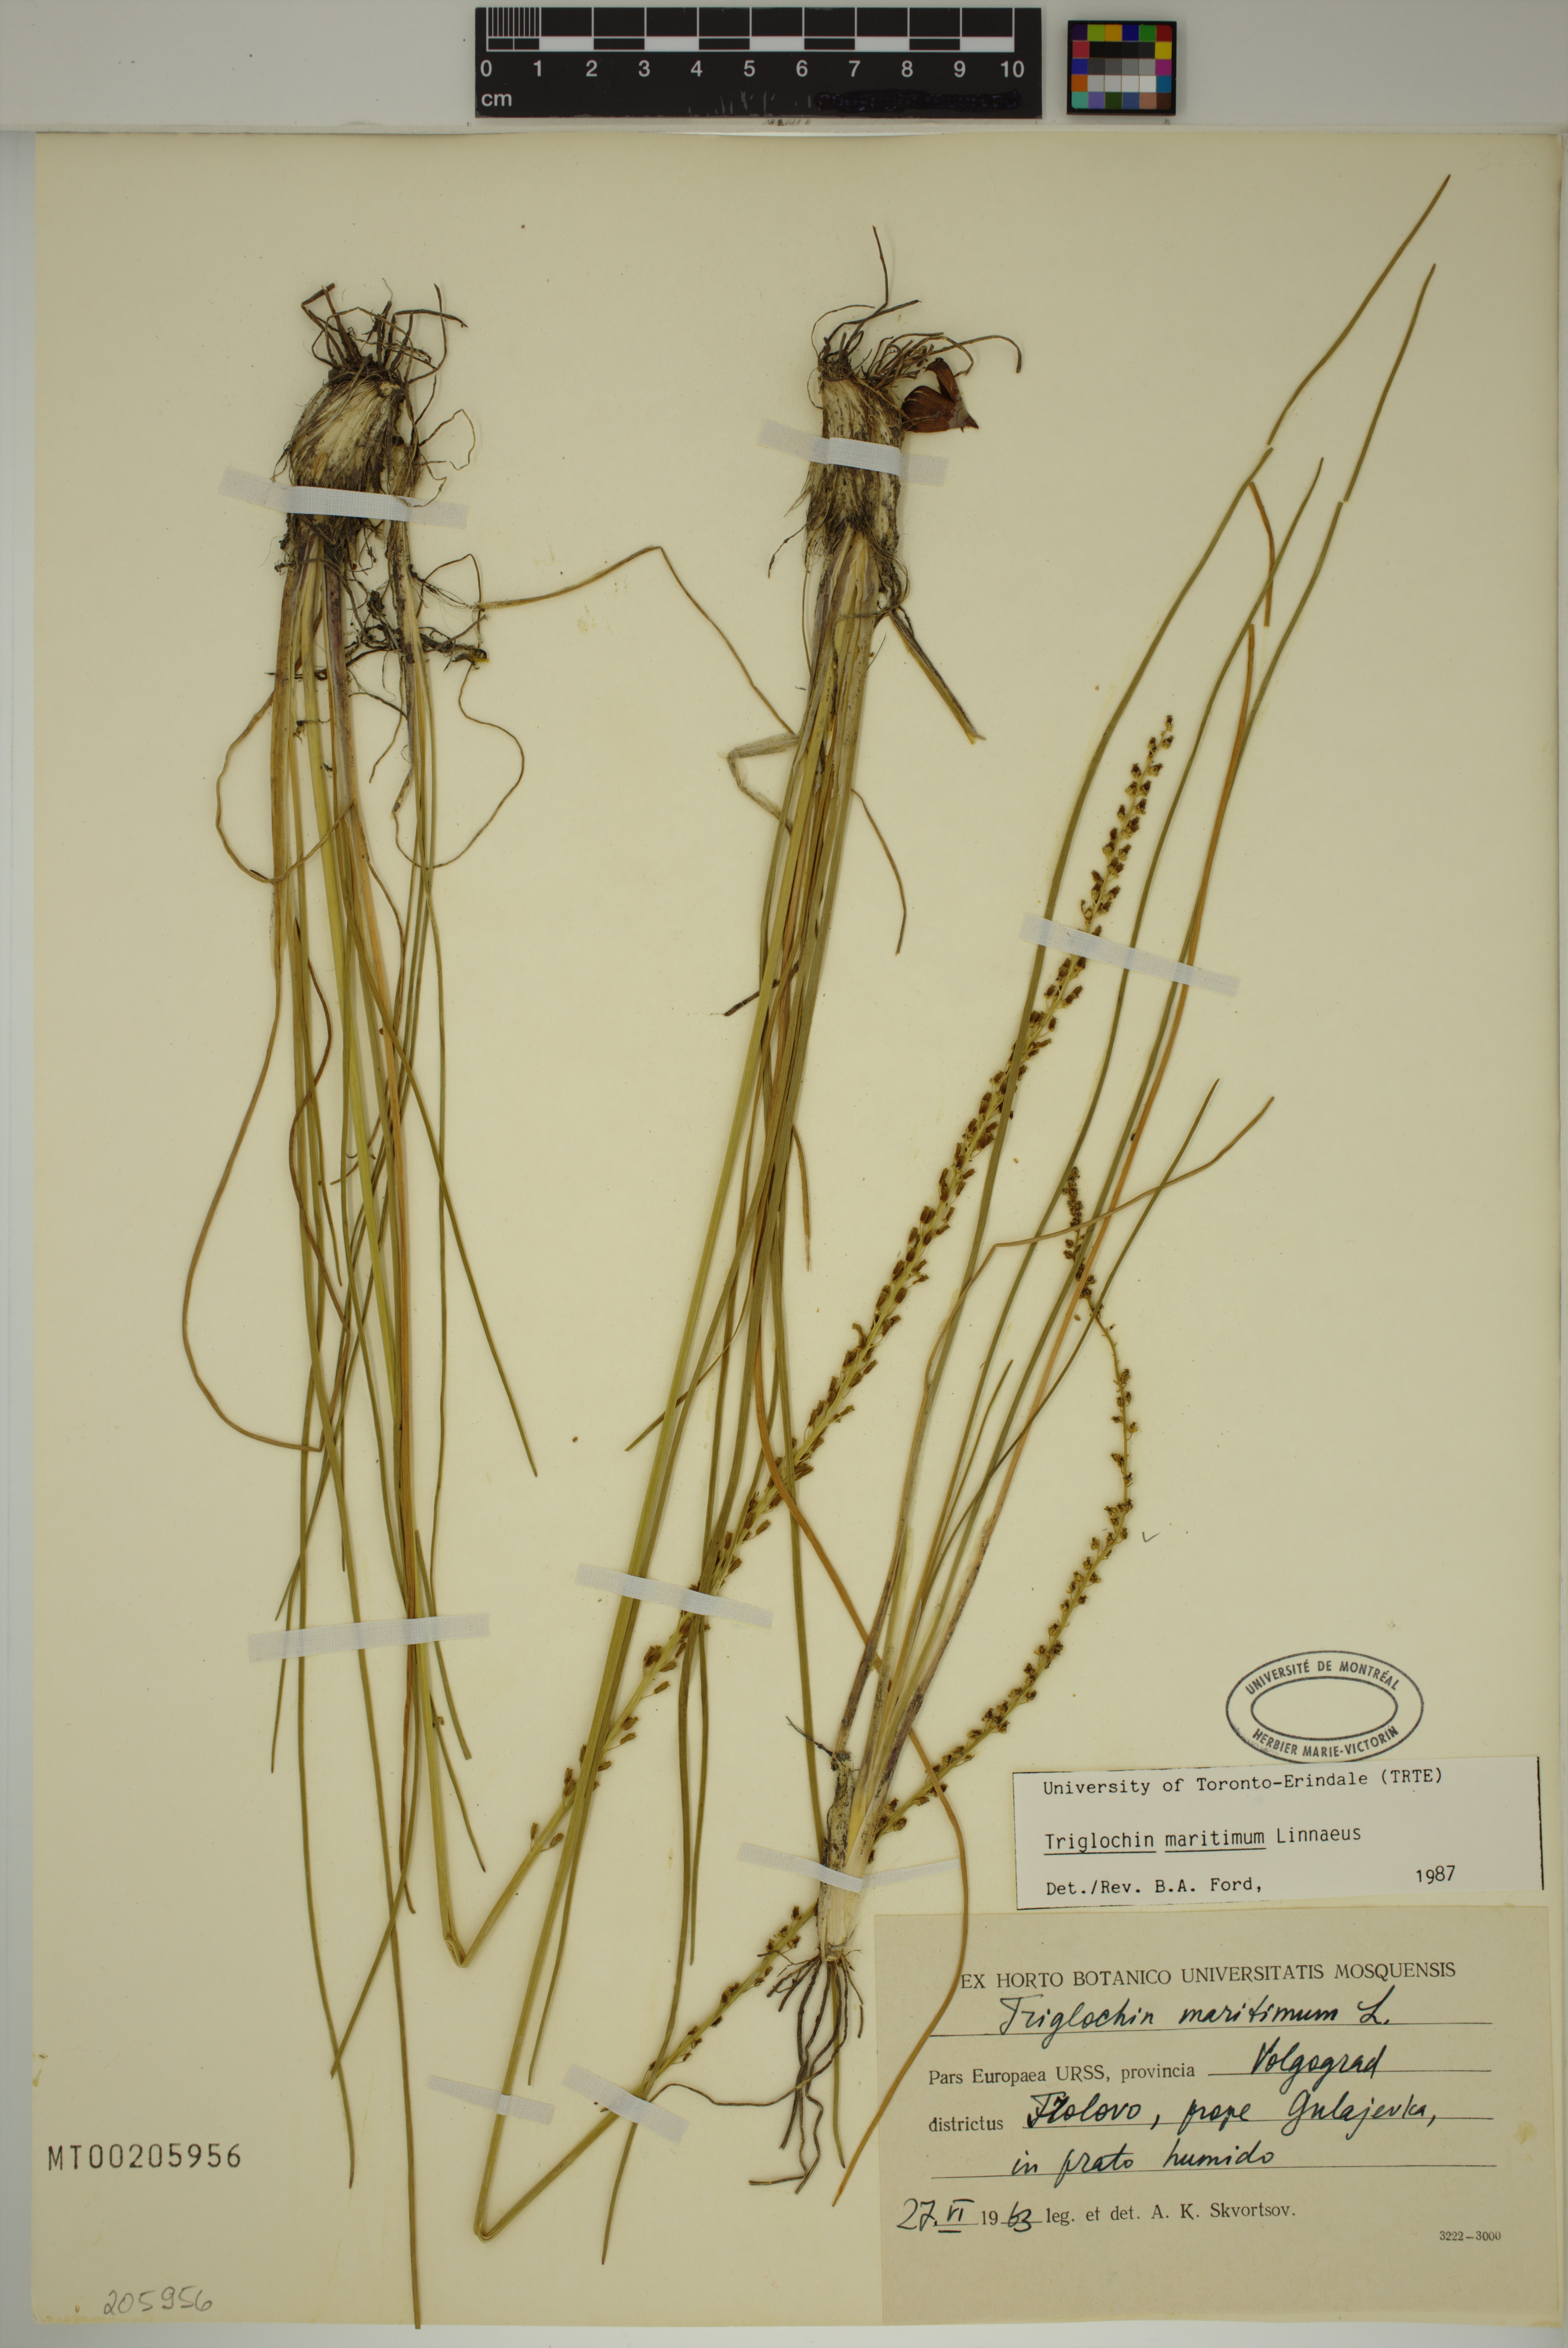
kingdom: Plantae
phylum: Tracheophyta
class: Liliopsida
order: Alismatales
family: Juncaginaceae
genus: Triglochin
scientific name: Triglochin maritima
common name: Sea arrowgrass
